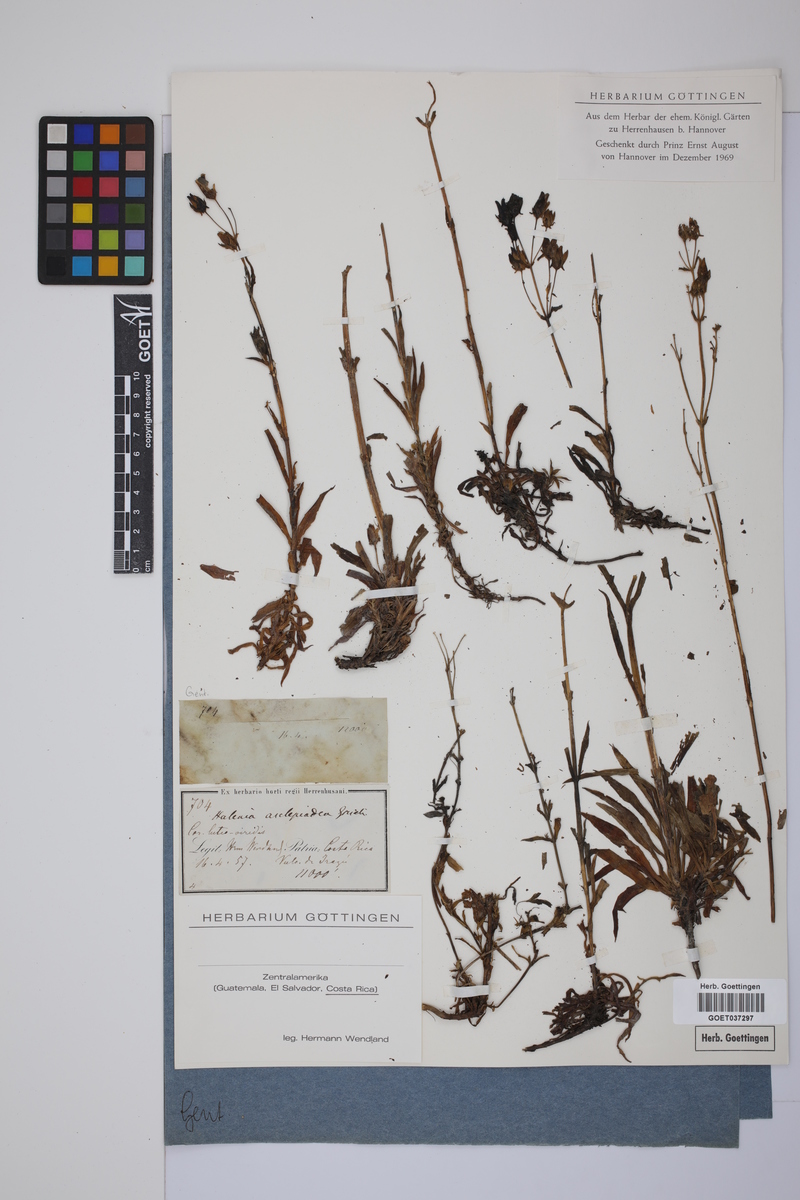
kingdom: Plantae
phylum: Tracheophyta
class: Magnoliopsida
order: Gentianales
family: Gentianaceae
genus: Halenia
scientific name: Halenia asclepiadea
